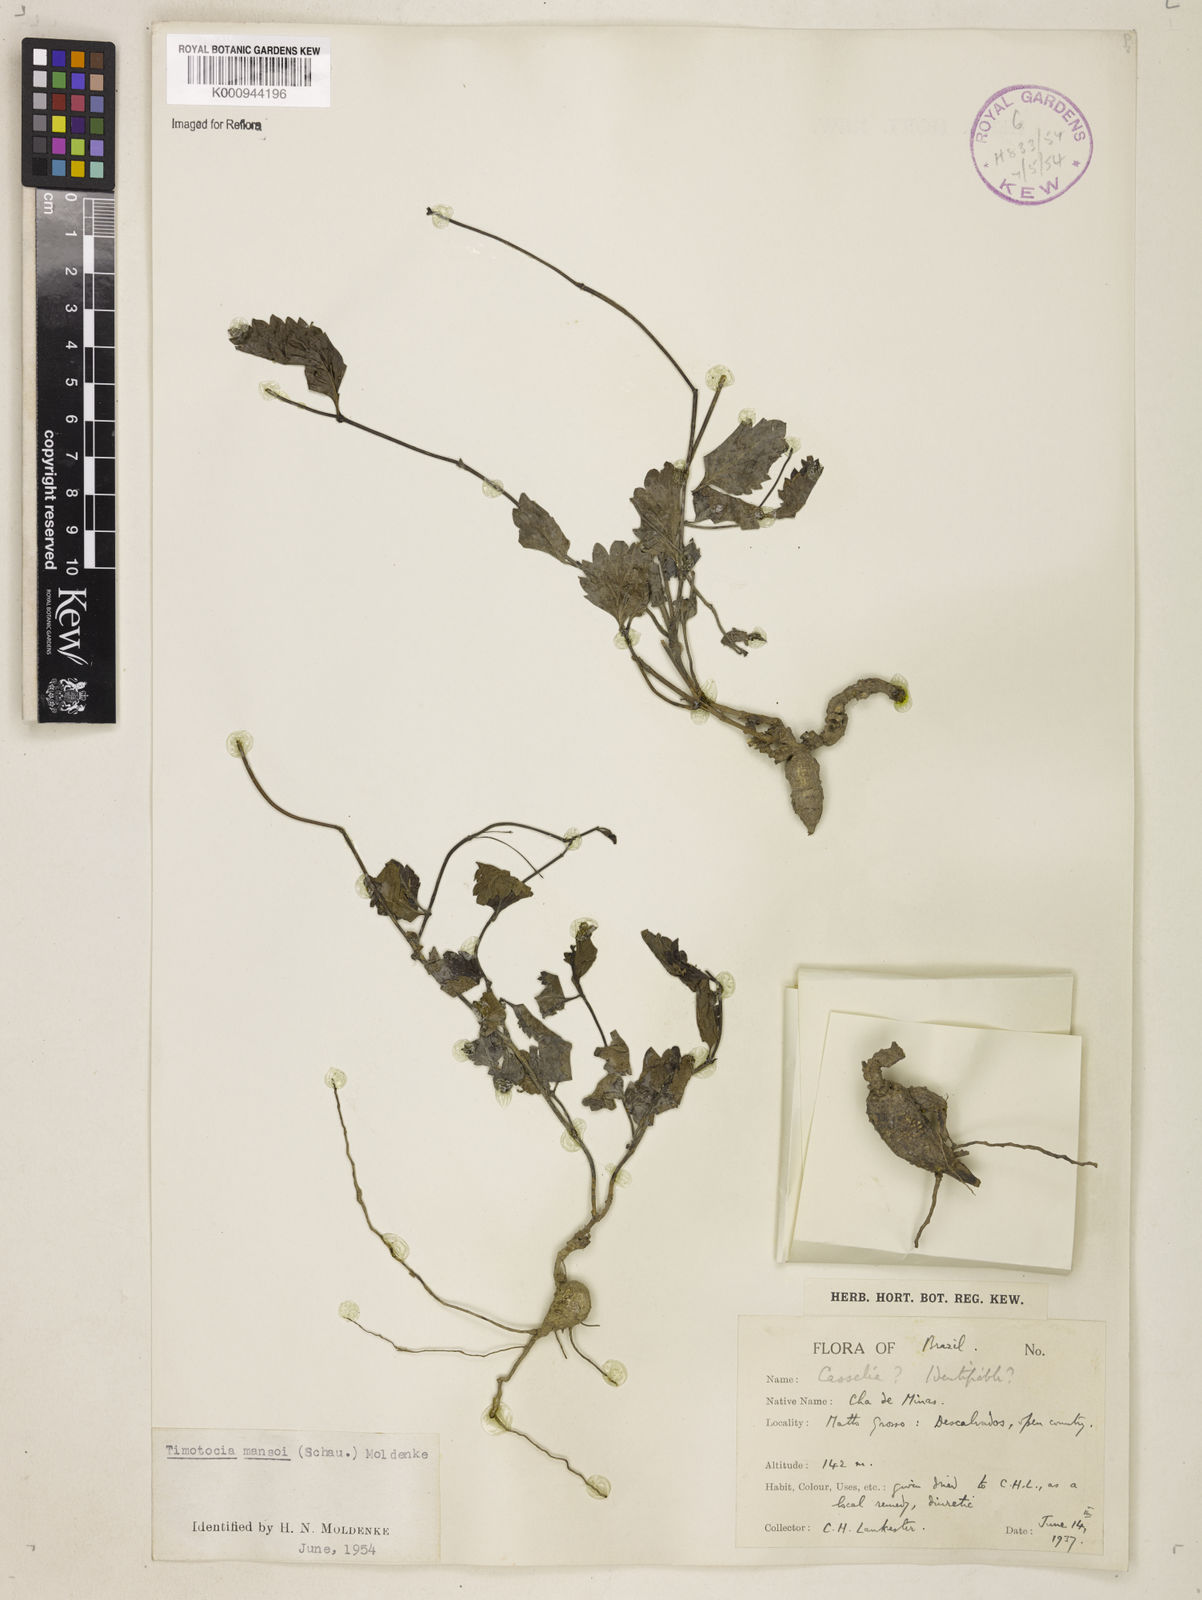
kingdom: Plantae
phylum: Tracheophyta
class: Magnoliopsida
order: Lamiales
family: Verbenaceae
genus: Casselia
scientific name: Casselia
